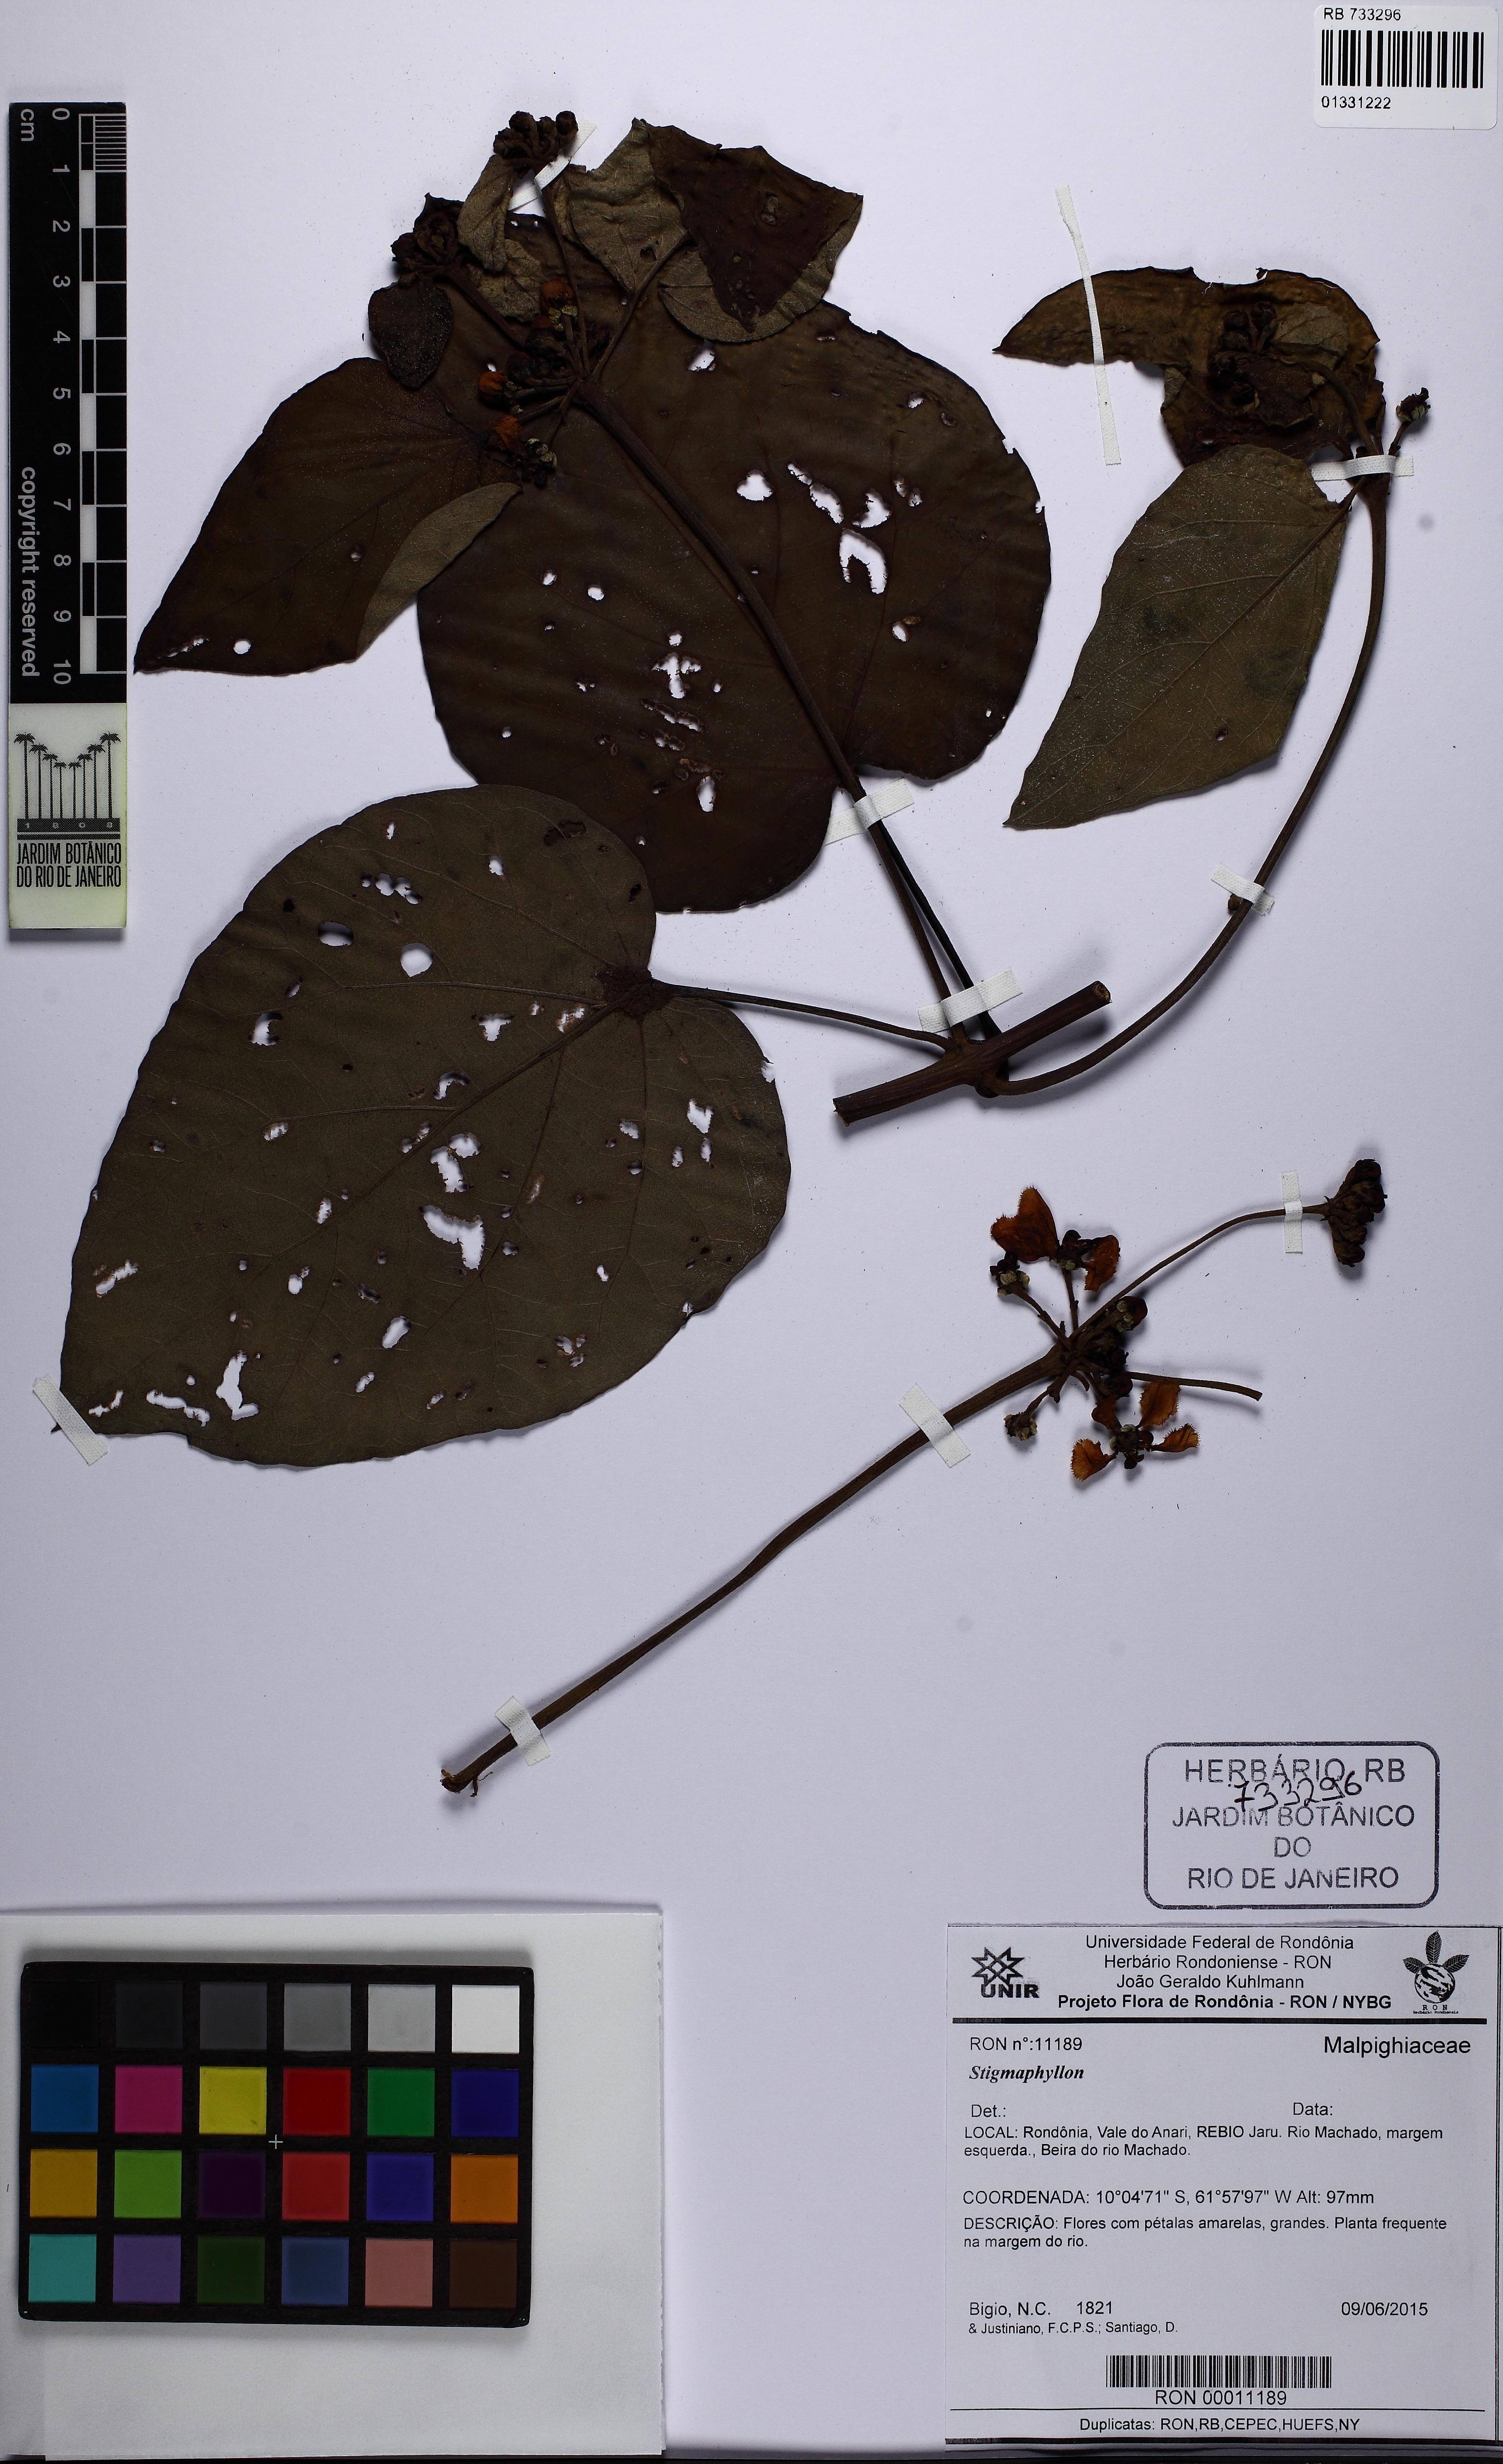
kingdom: Plantae
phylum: Tracheophyta
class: Magnoliopsida
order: Malpighiales
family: Malpighiaceae
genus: Stigmaphyllon
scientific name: Stigmaphyllon
